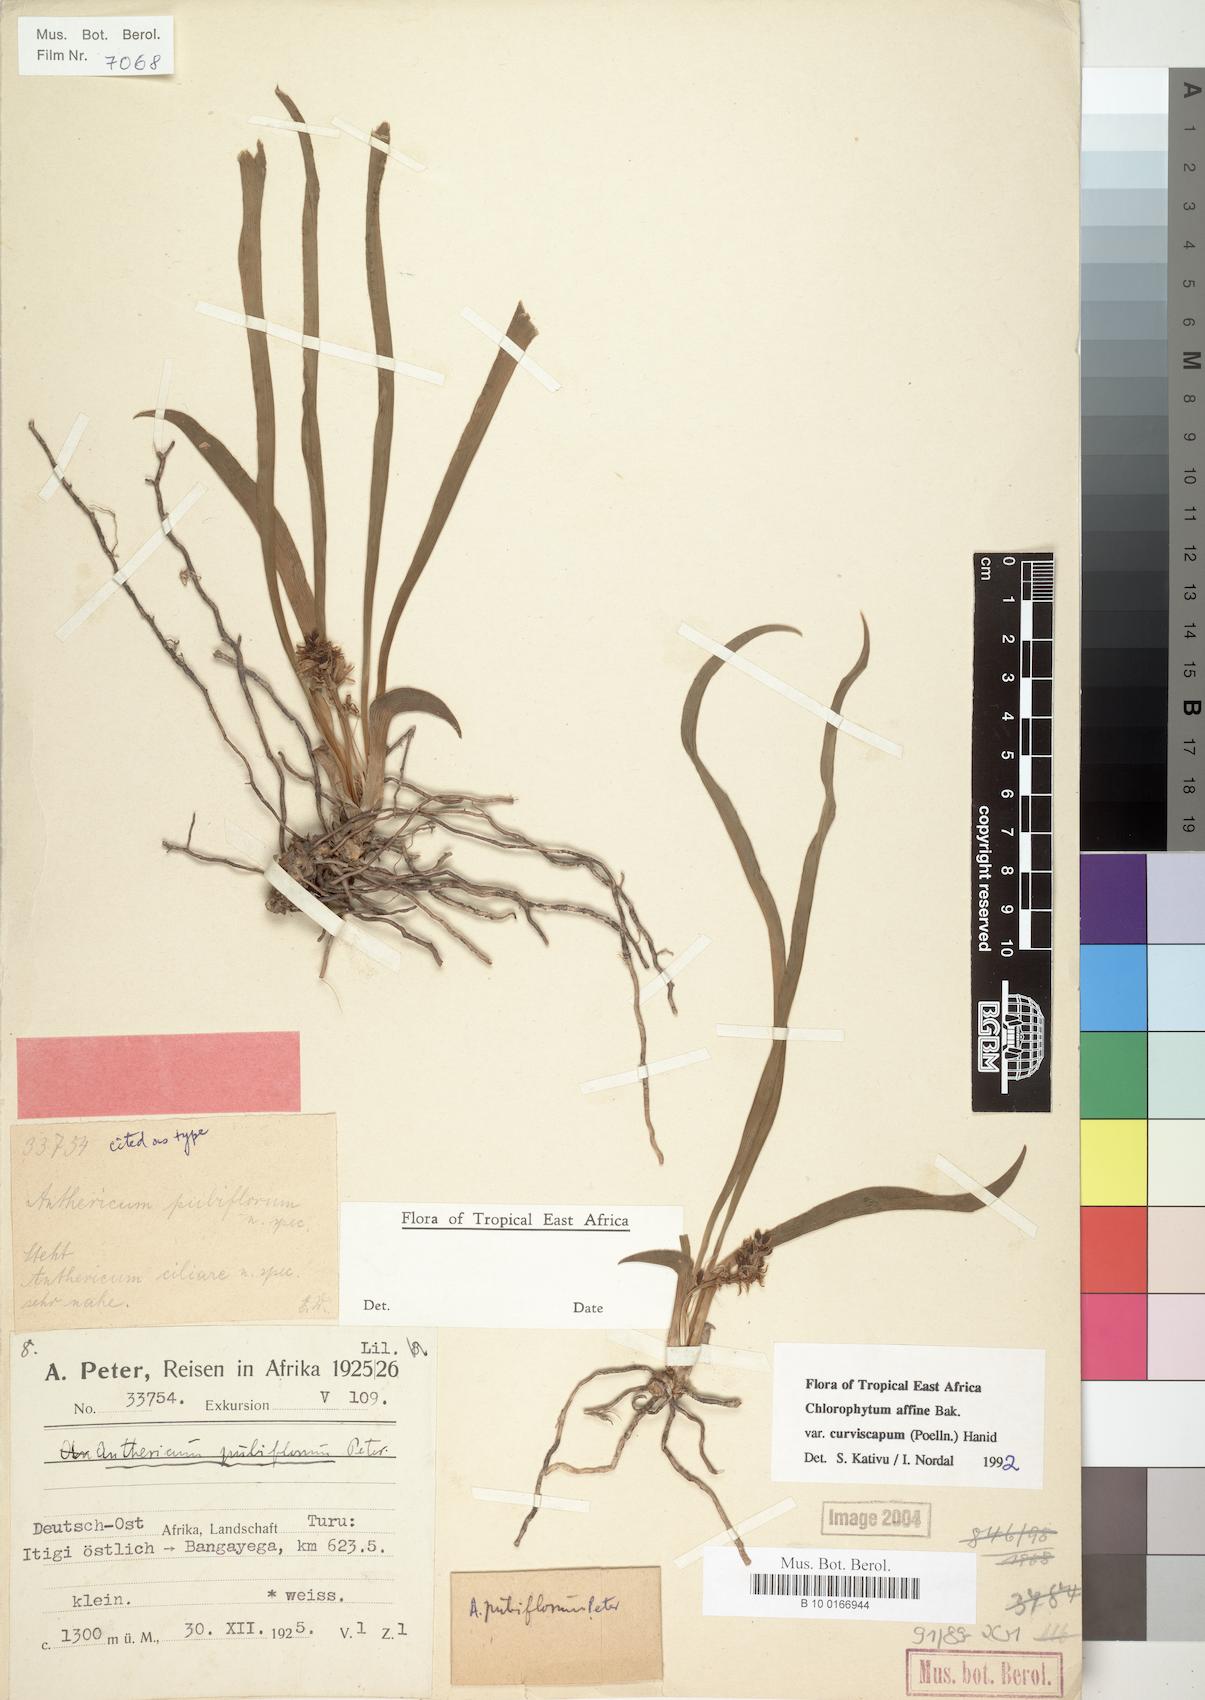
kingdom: Plantae
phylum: Tracheophyta
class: Liliopsida
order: Asparagales
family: Asparagaceae
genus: Chlorophytum
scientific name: Chlorophytum tordense
